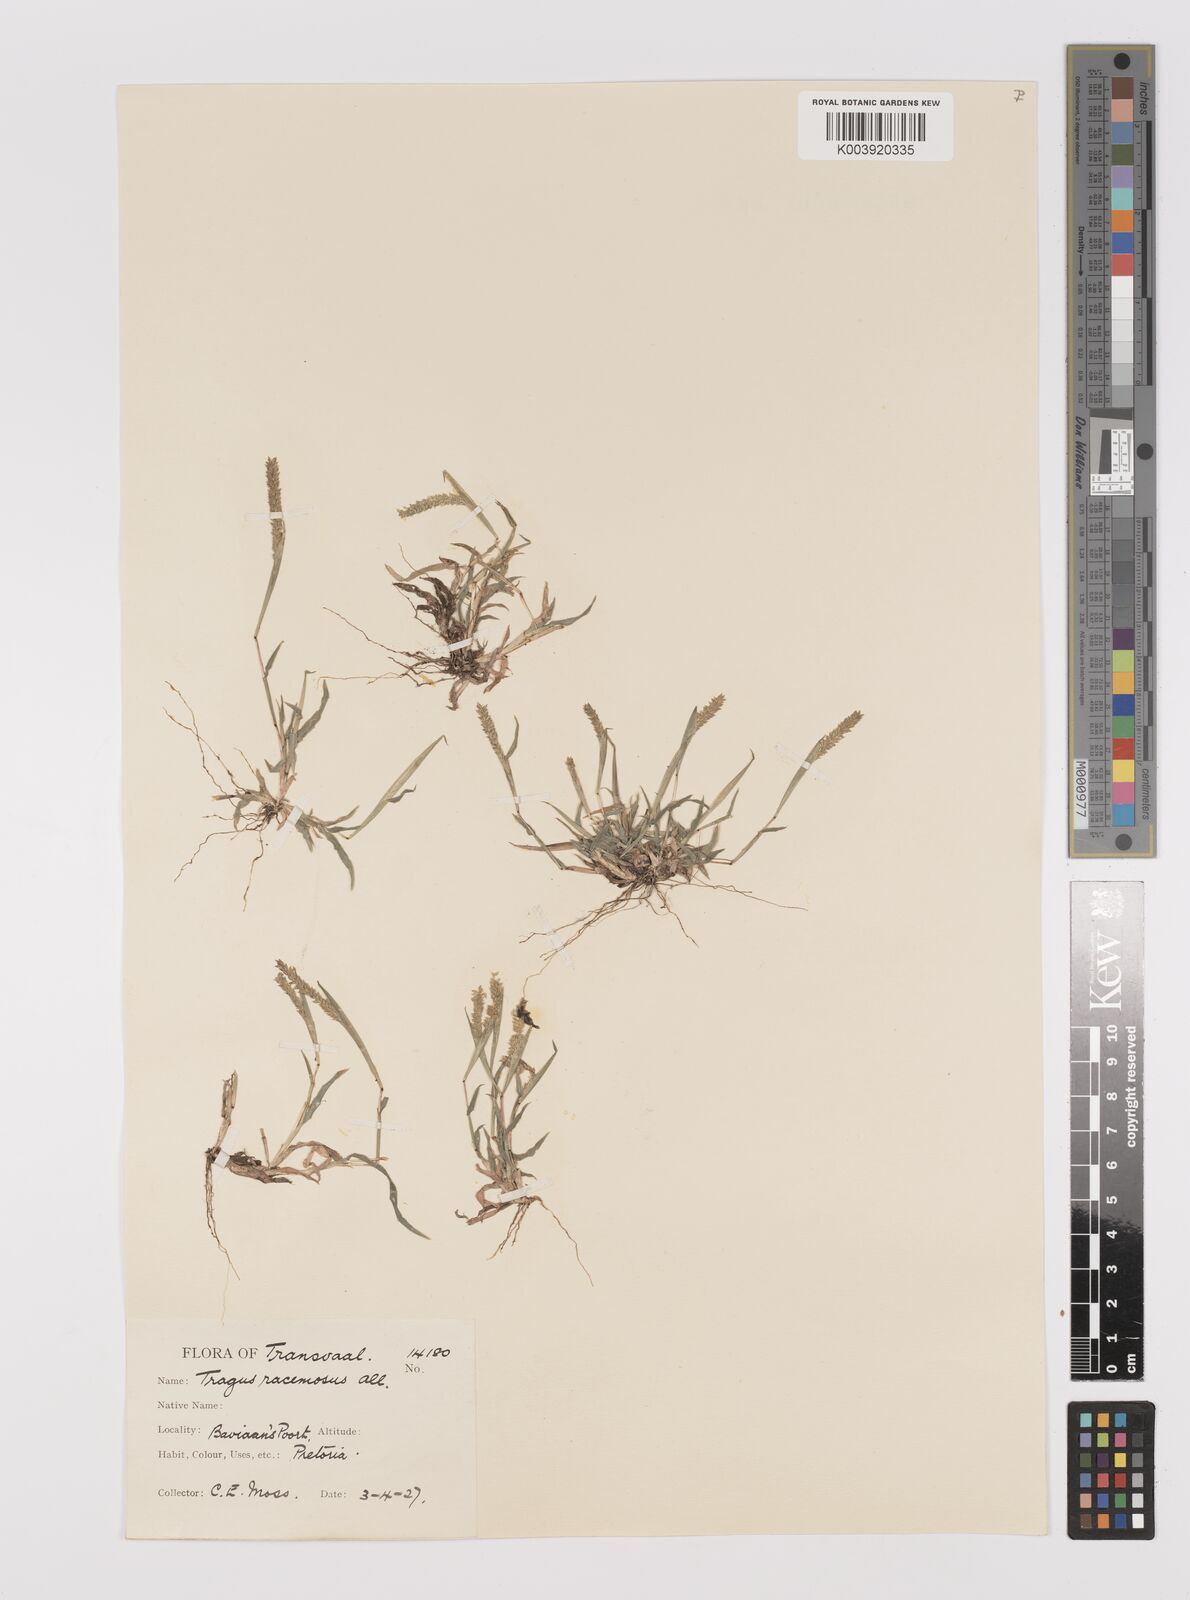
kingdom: Plantae
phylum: Tracheophyta
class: Liliopsida
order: Poales
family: Poaceae
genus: Tragus
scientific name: Tragus berteronianus
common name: African bur-grass
